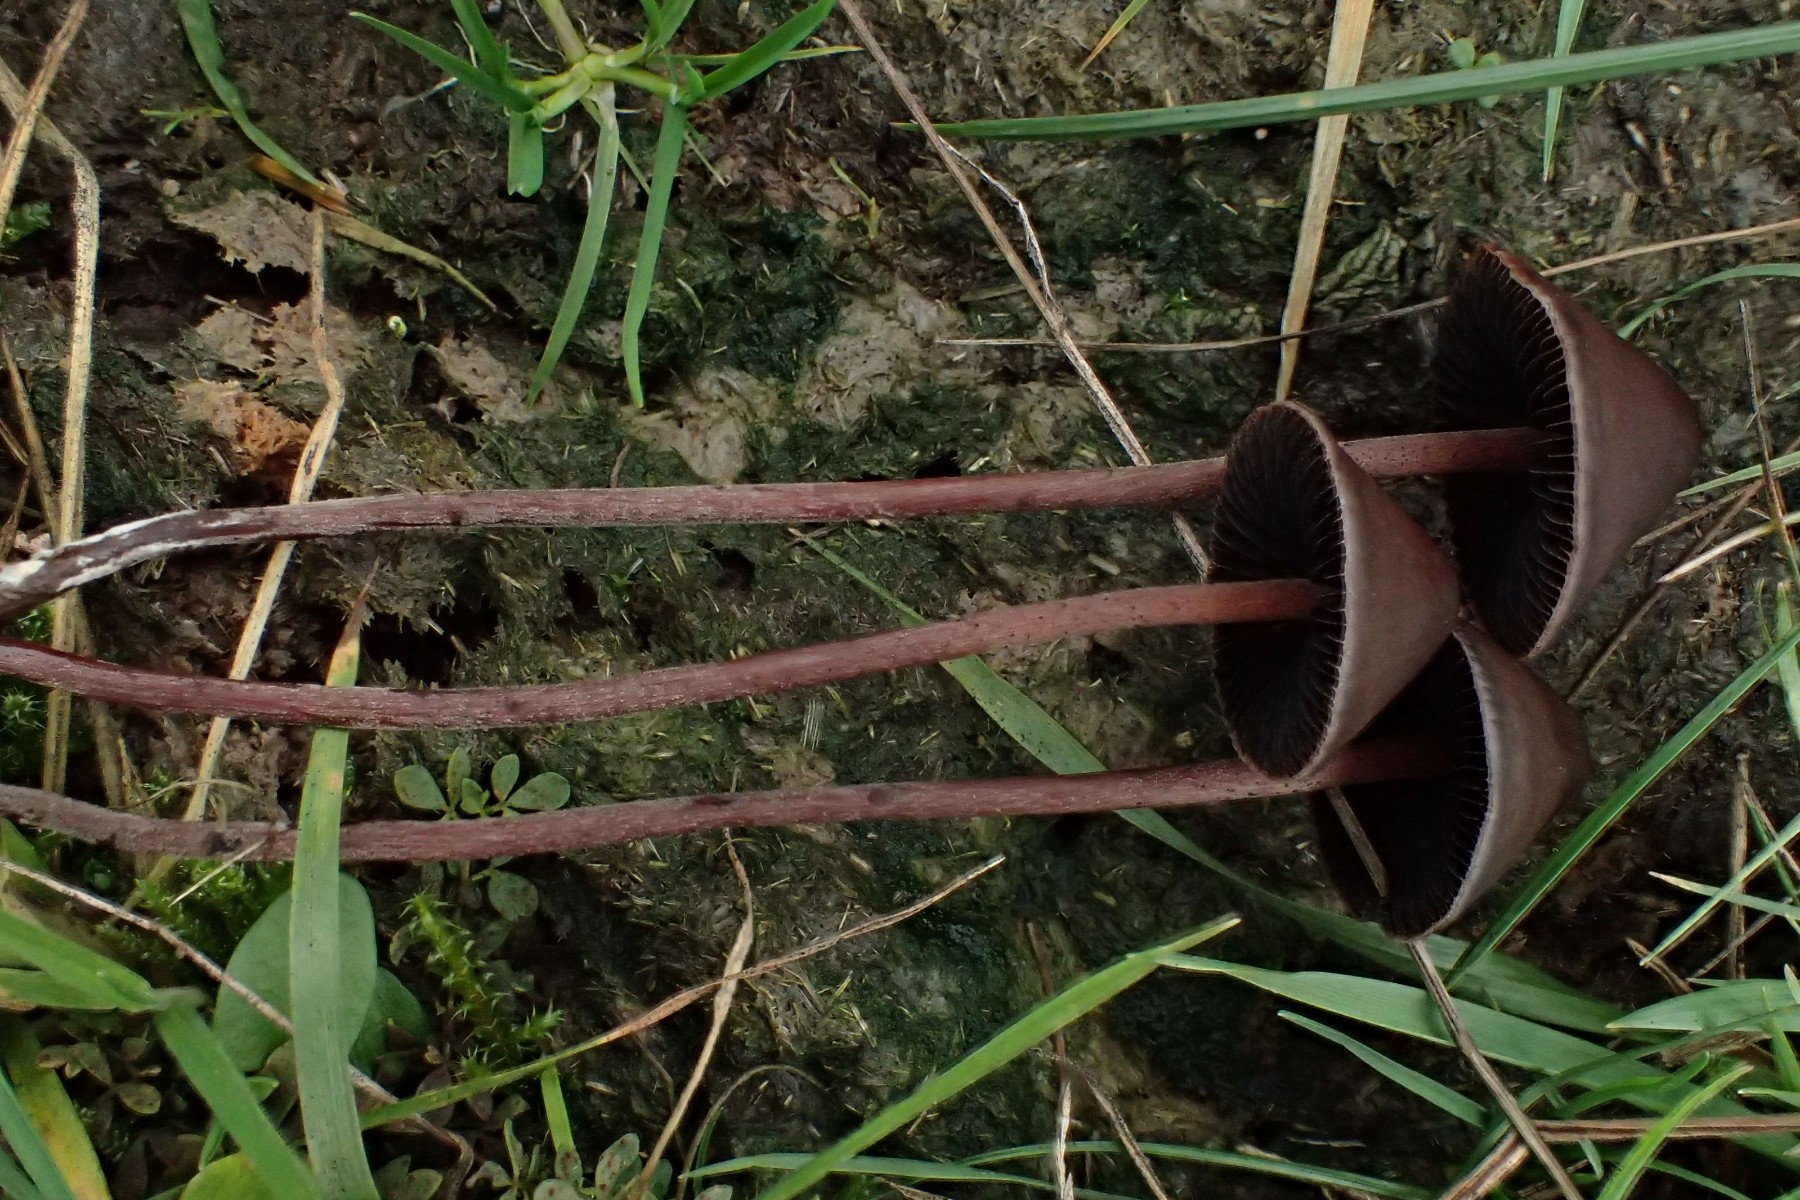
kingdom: Fungi
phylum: Basidiomycota
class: Agaricomycetes
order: Agaricales
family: Bolbitiaceae
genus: Panaeolus
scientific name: Panaeolus papilionaceus
